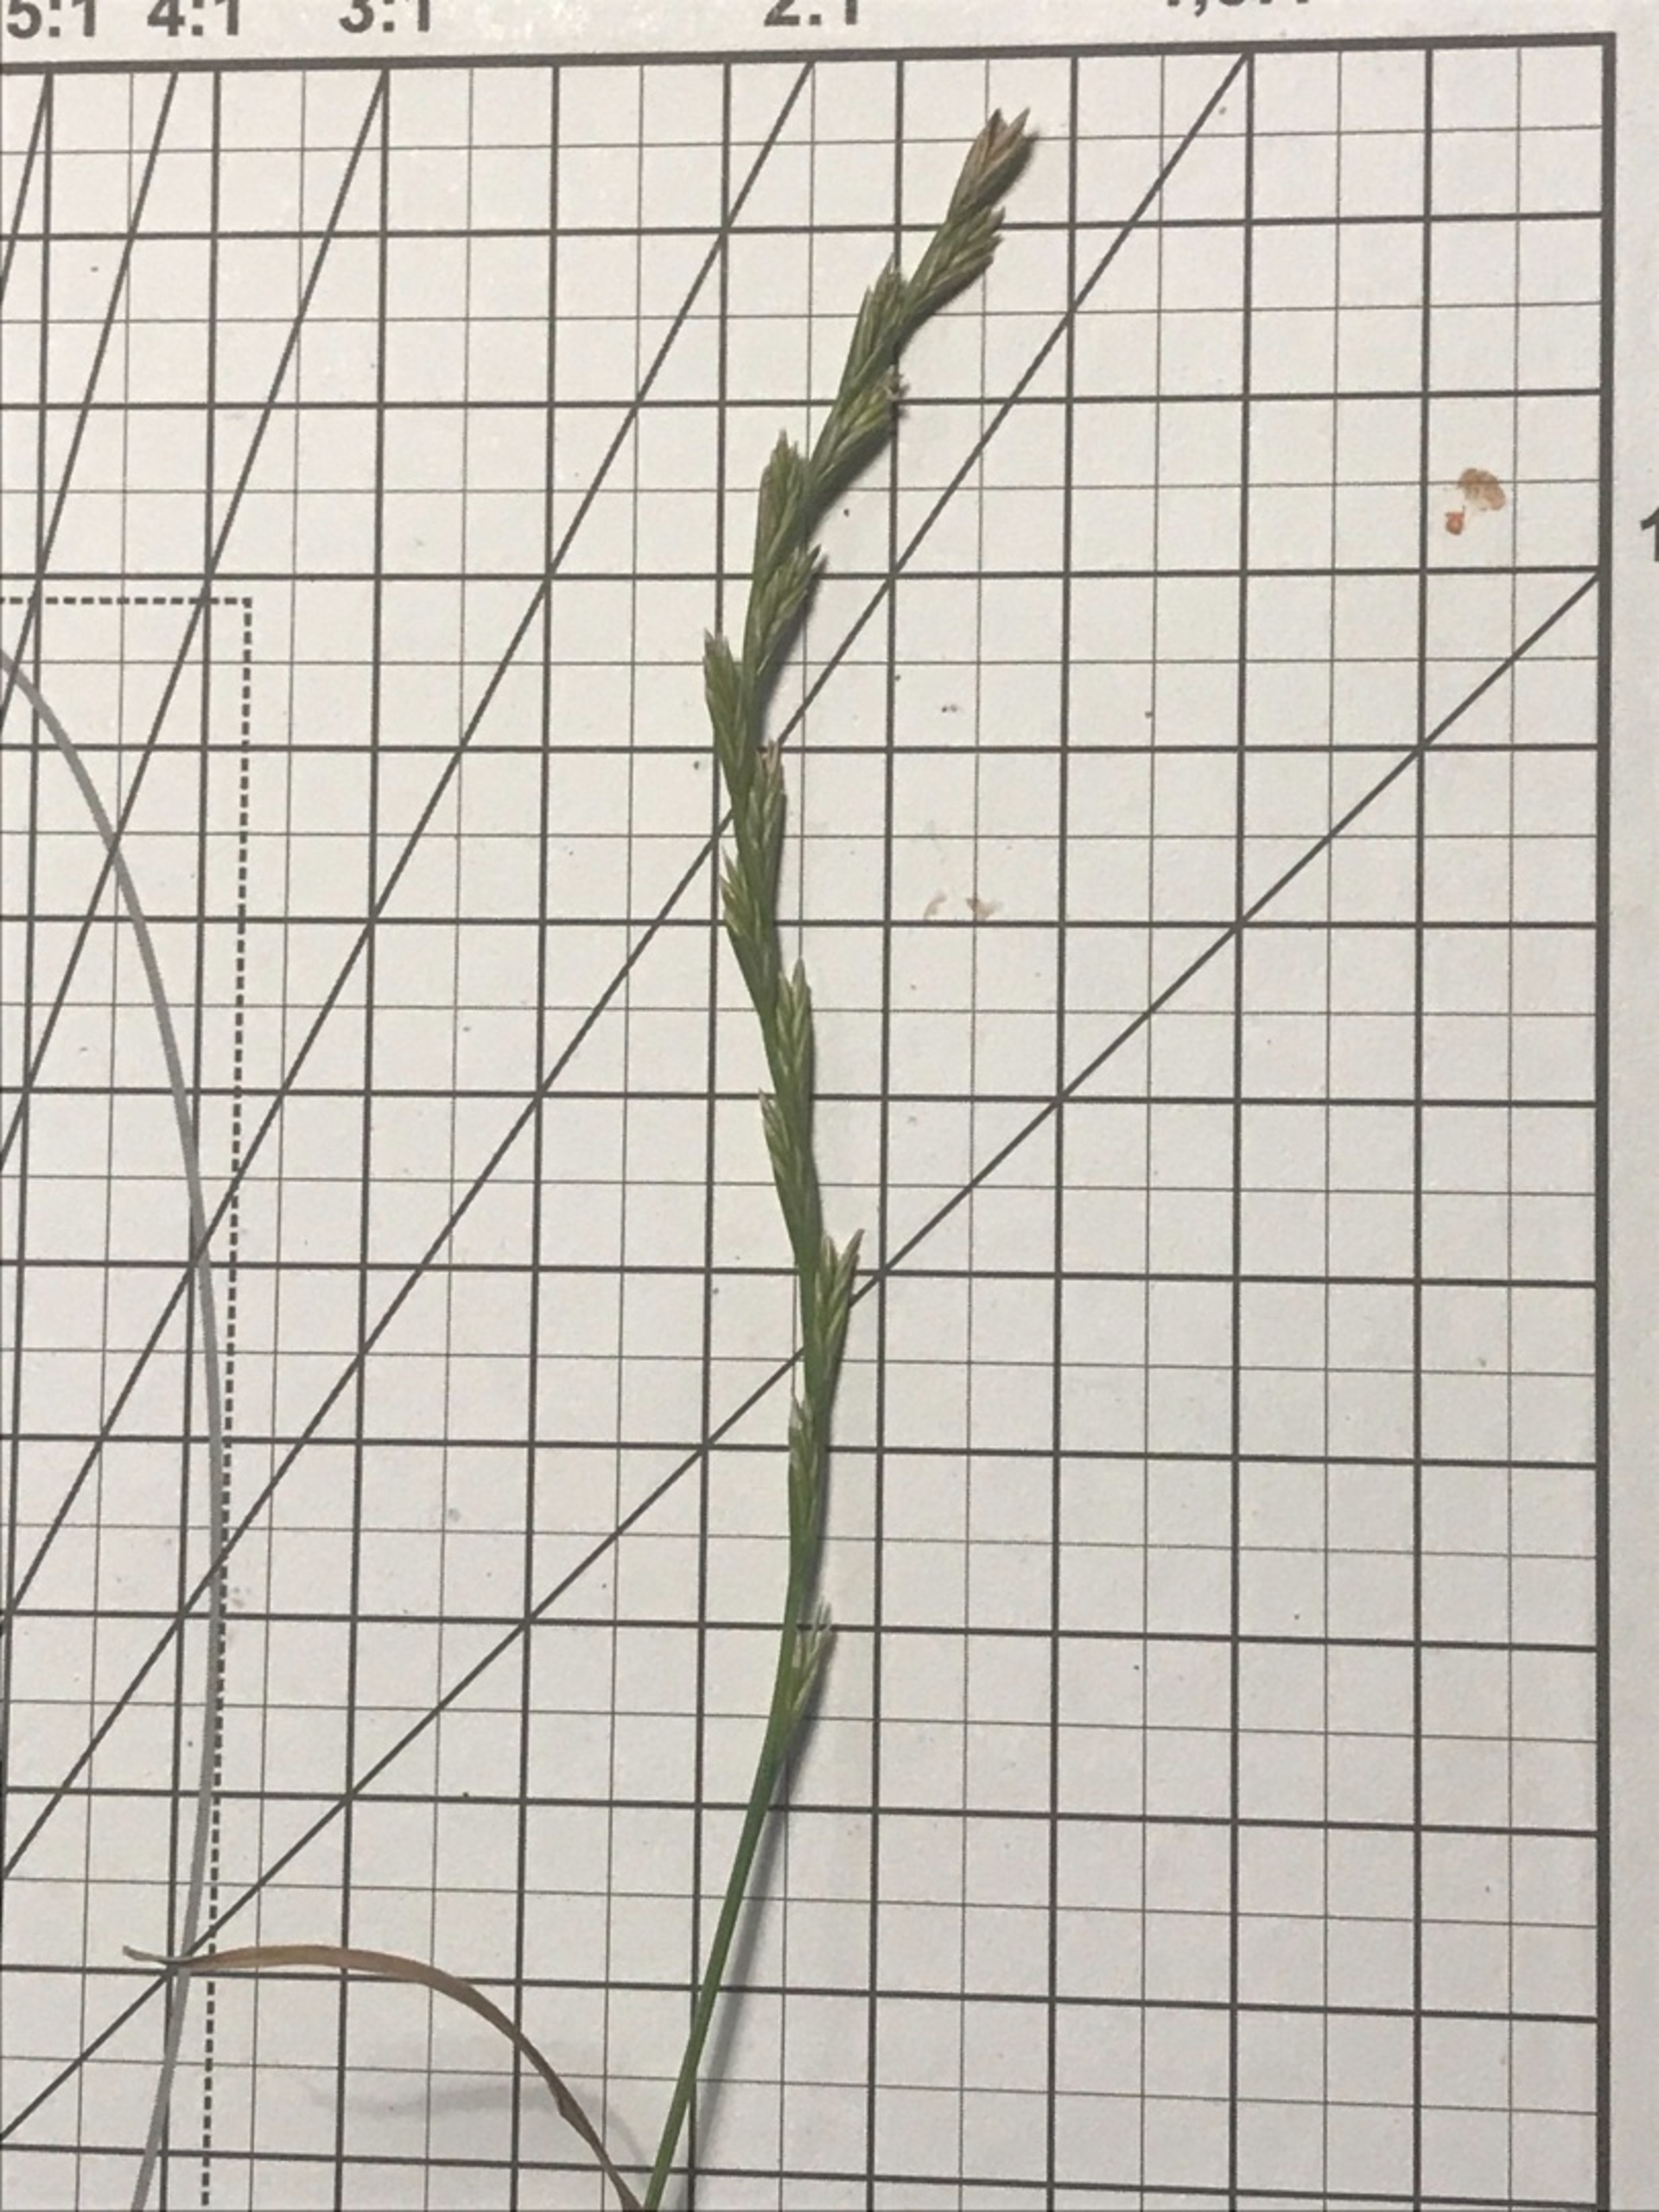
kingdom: Plantae
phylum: Tracheophyta
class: Liliopsida
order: Poales
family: Poaceae
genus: Lolium
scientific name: Lolium perenne
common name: Almindelig rajgræs
